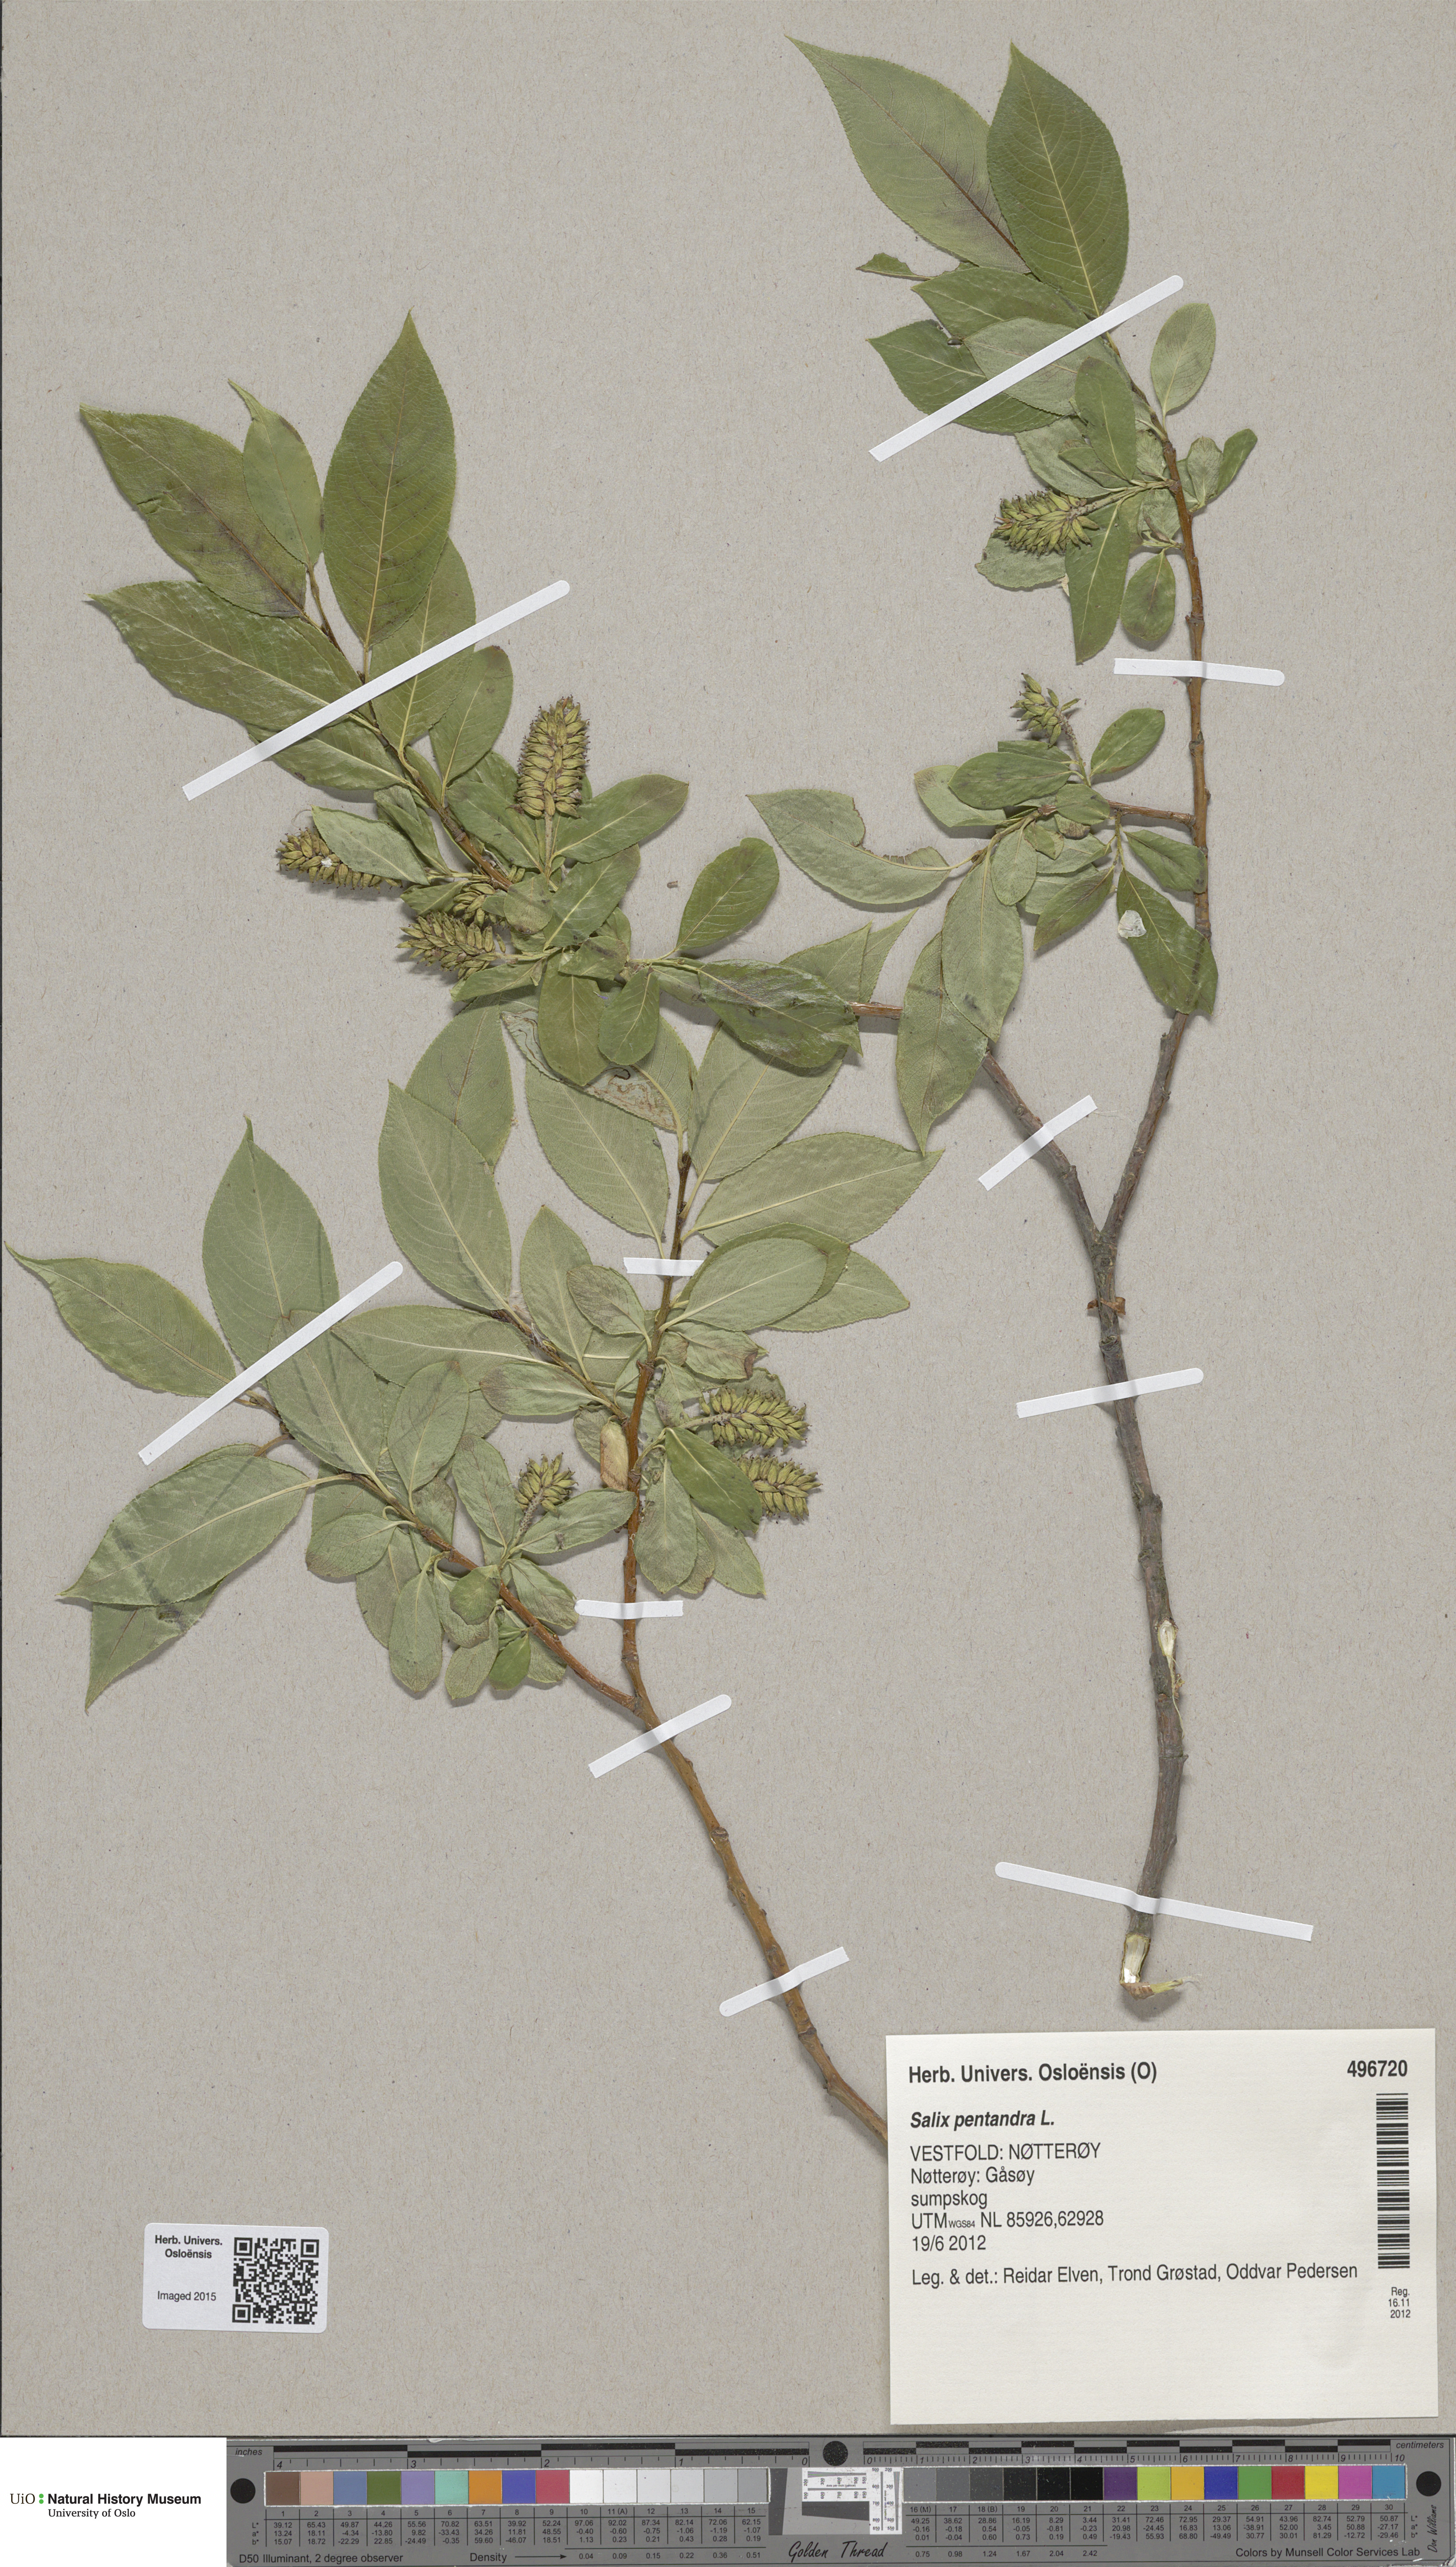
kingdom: Plantae
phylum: Tracheophyta
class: Magnoliopsida
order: Malpighiales
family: Salicaceae
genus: Salix
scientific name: Salix pentandra
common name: Bay willow
